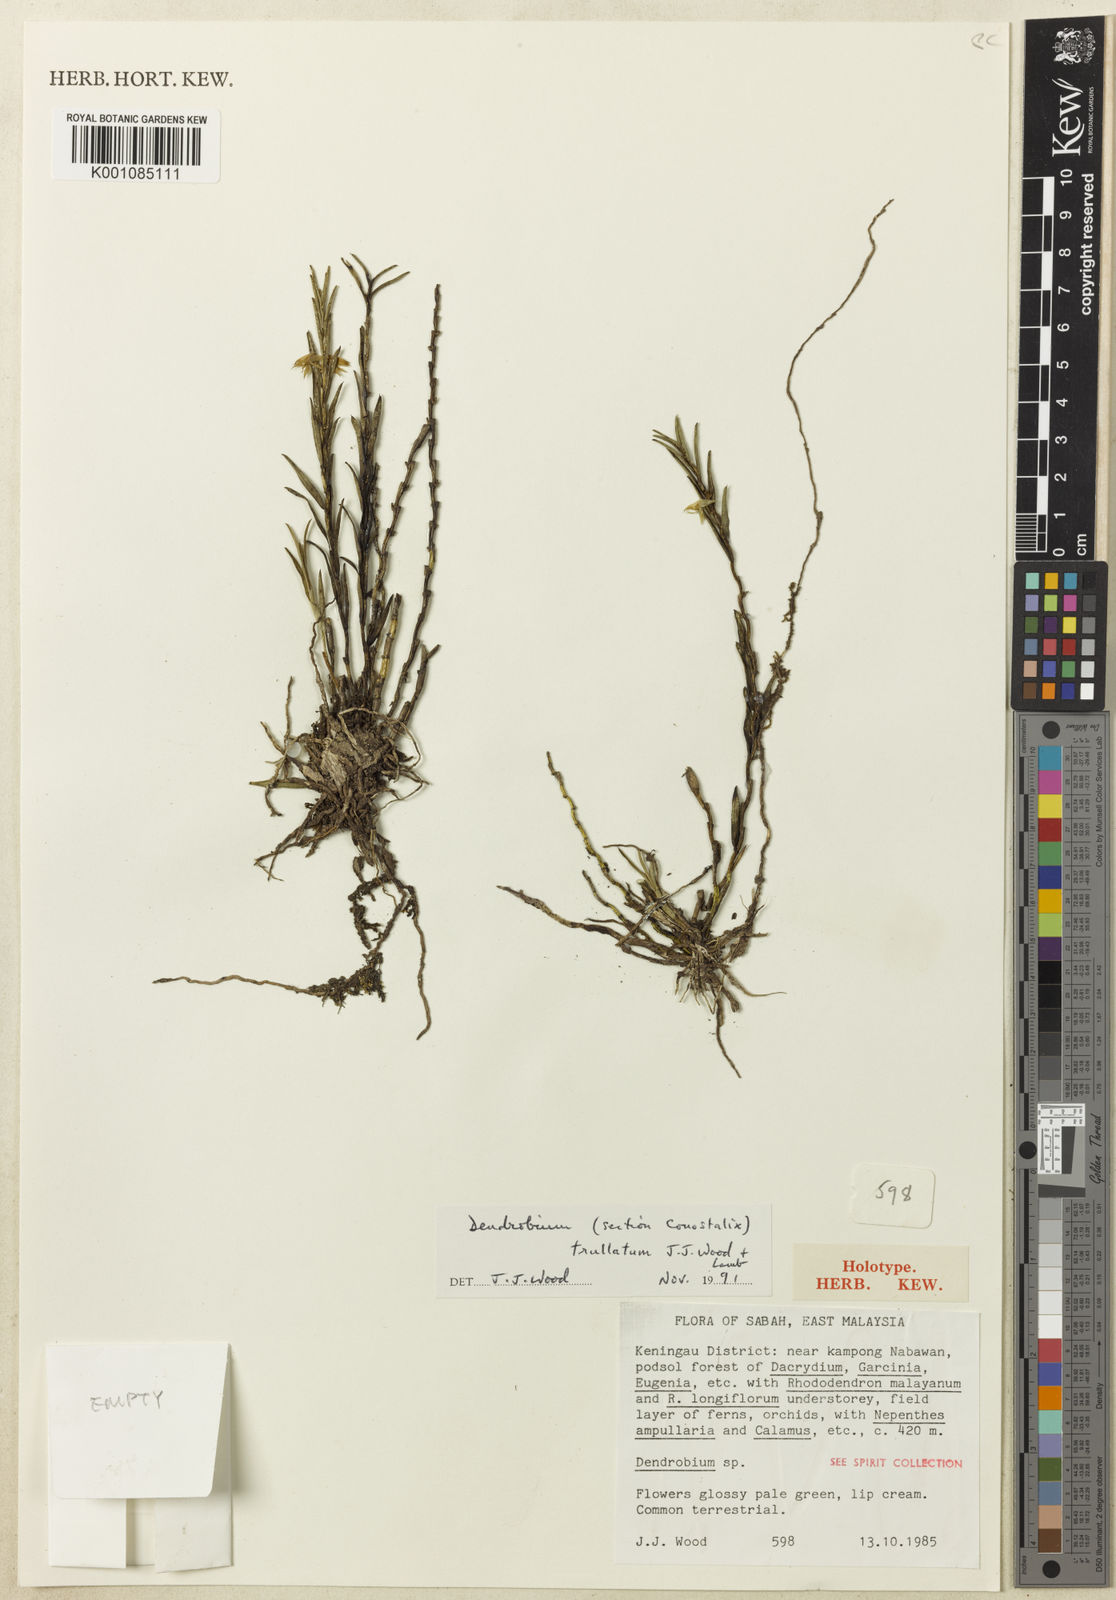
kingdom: Plantae
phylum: Tracheophyta
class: Liliopsida
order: Asparagales
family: Orchidaceae
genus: Dendrobium
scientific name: Dendrobium
